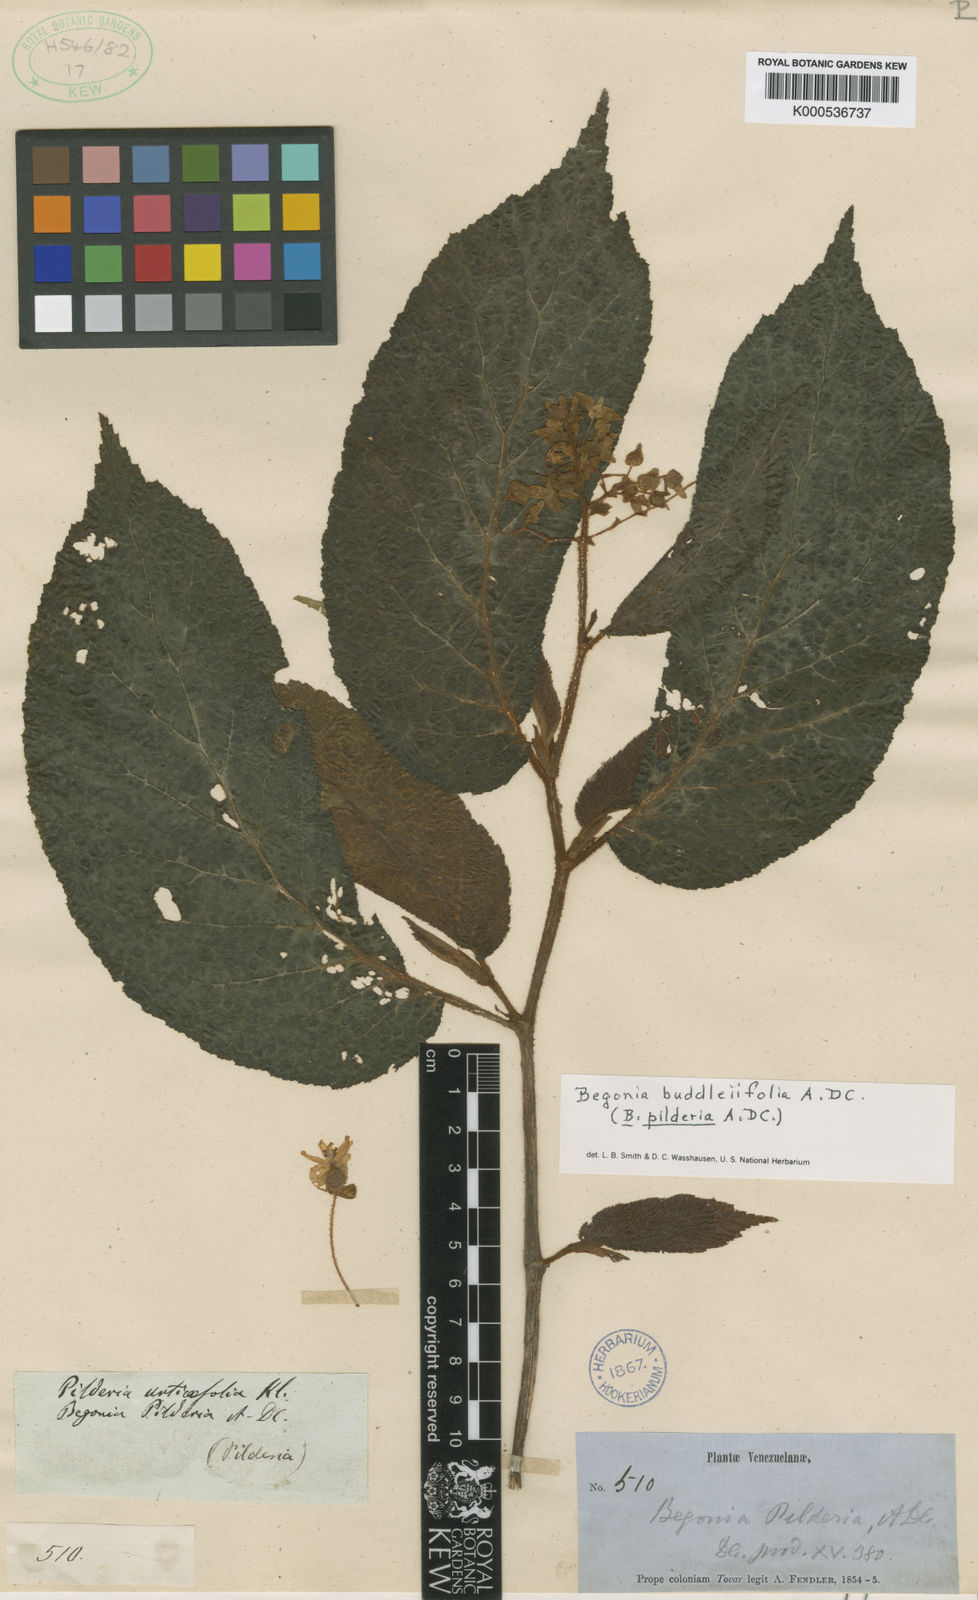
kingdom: Plantae
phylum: Tracheophyta
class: Magnoliopsida
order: Cucurbitales
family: Begoniaceae
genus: Begonia
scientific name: Begonia buddleiifolia
